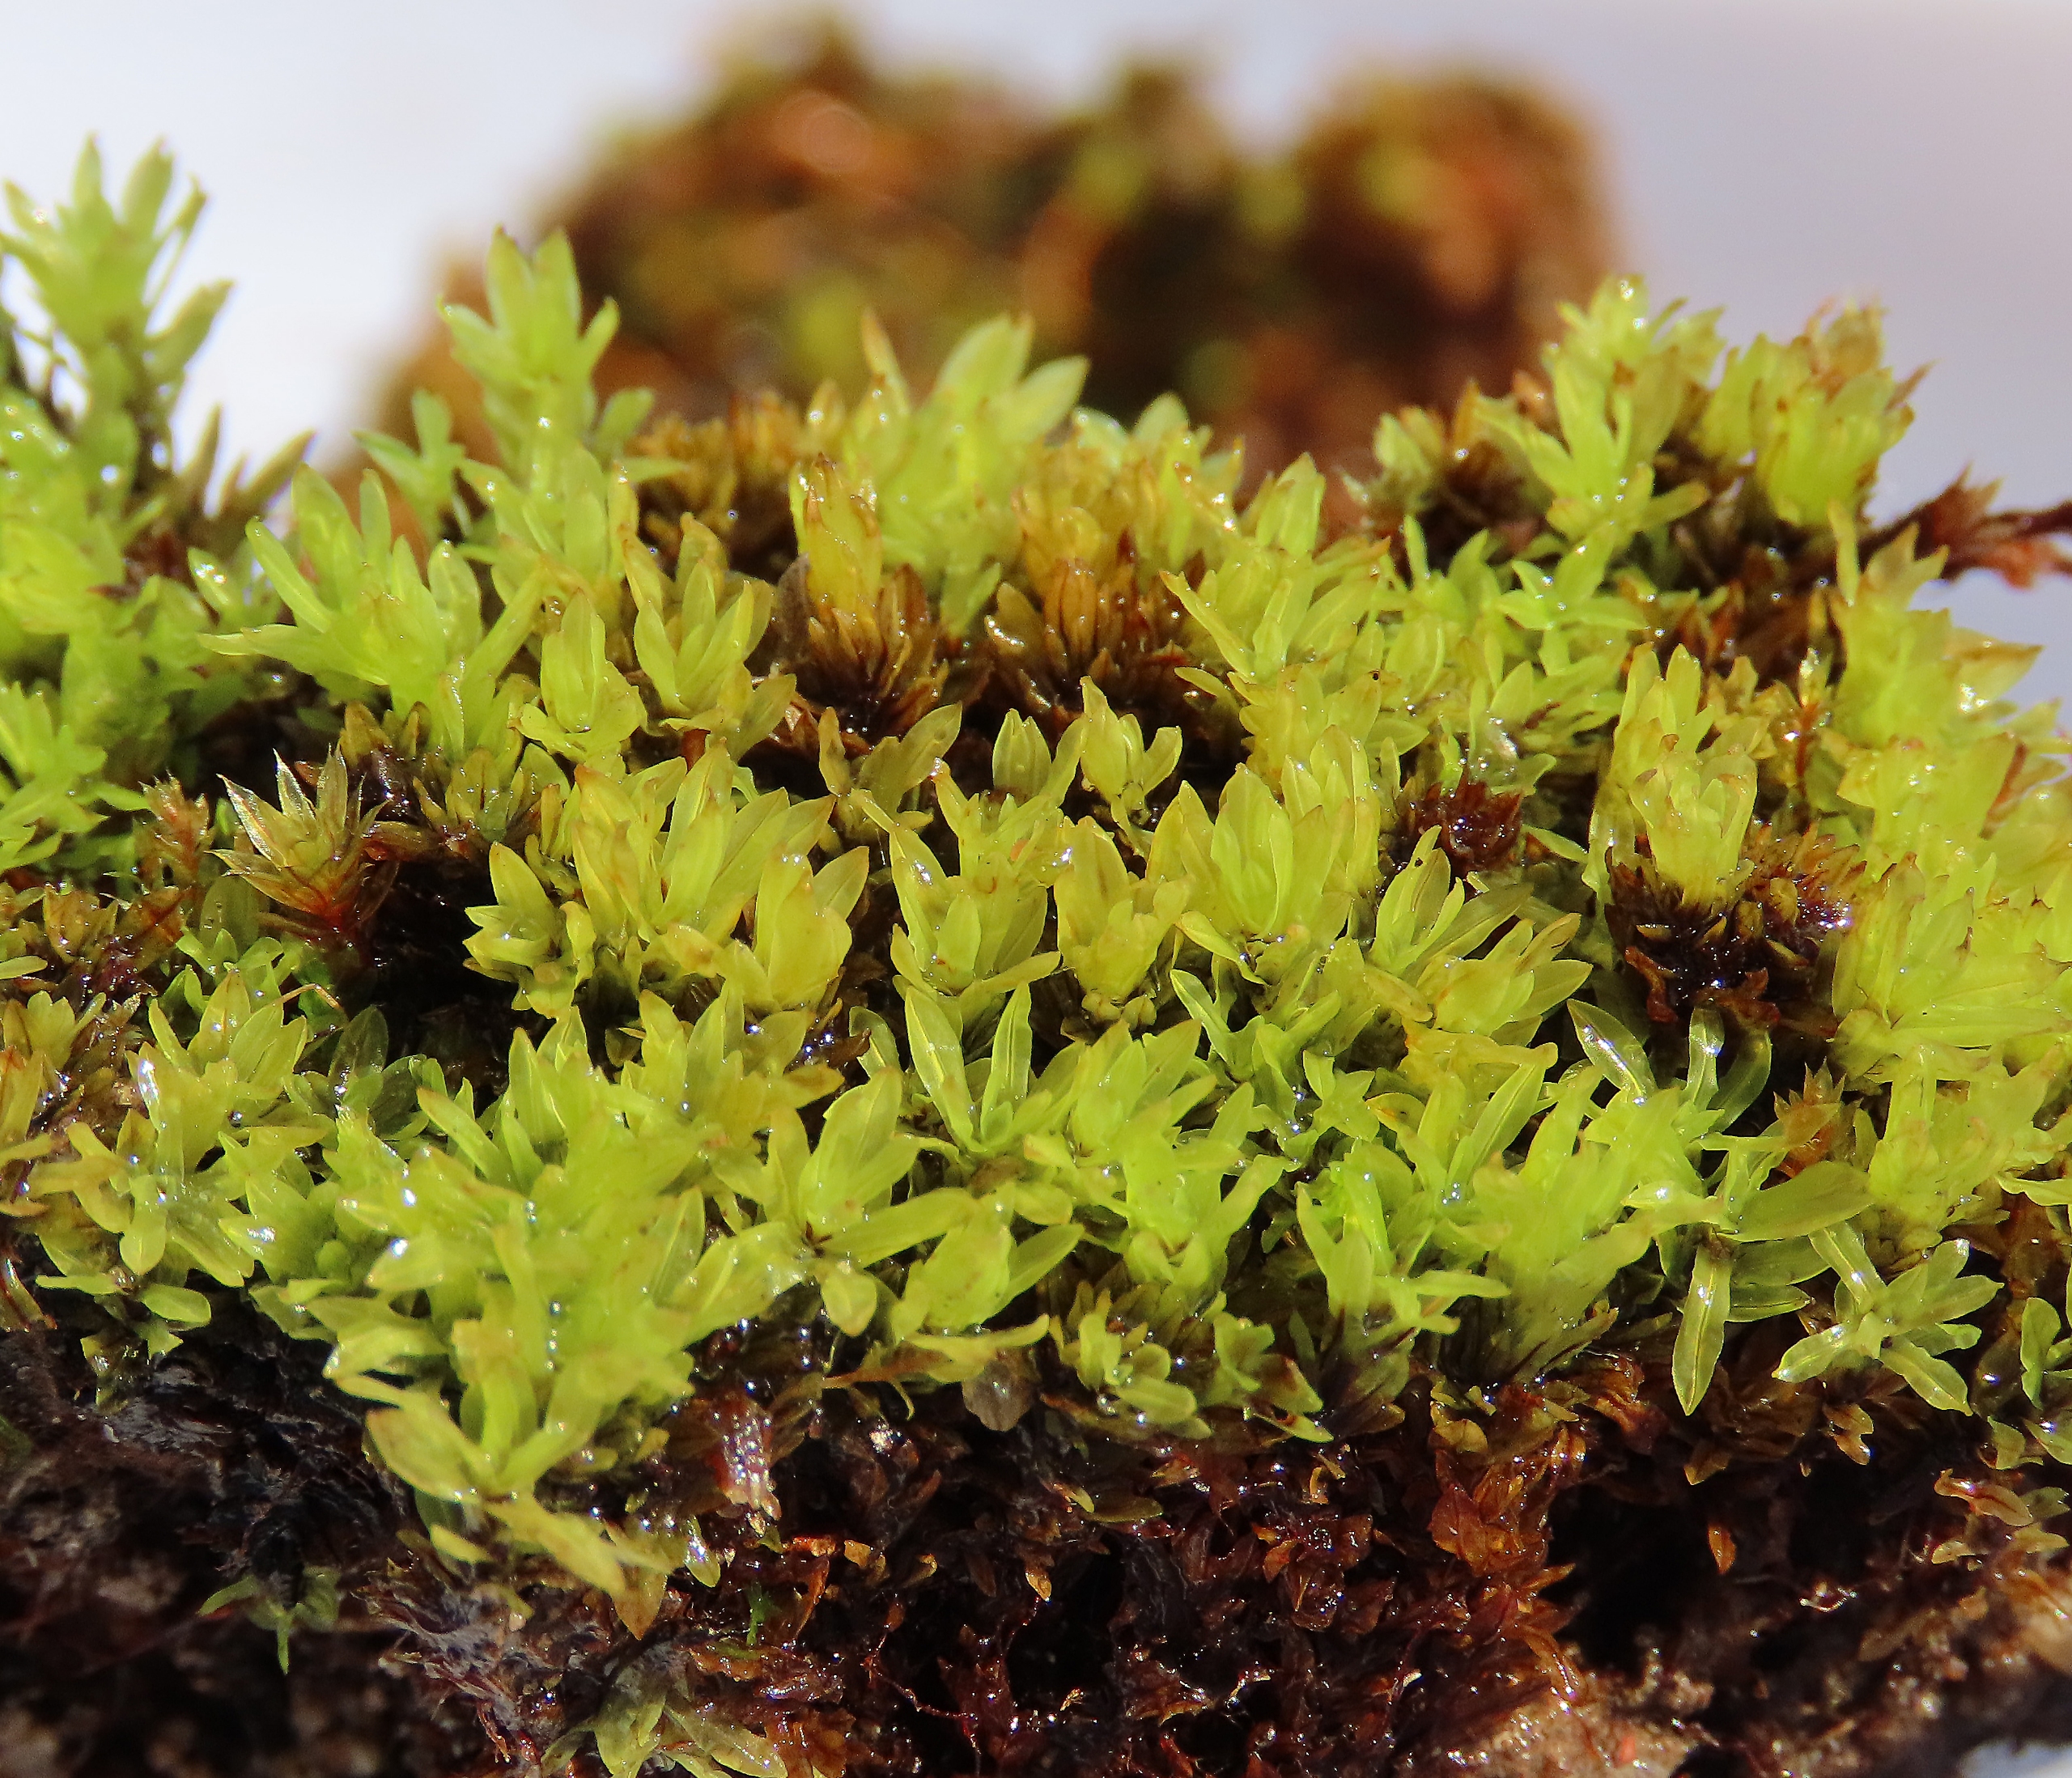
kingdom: Plantae
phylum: Bryophyta
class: Bryopsida
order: Encalyptales
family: Encalyptaceae
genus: Encalypta
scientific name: Encalypta streptocarpa
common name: Stor klokkehætte
